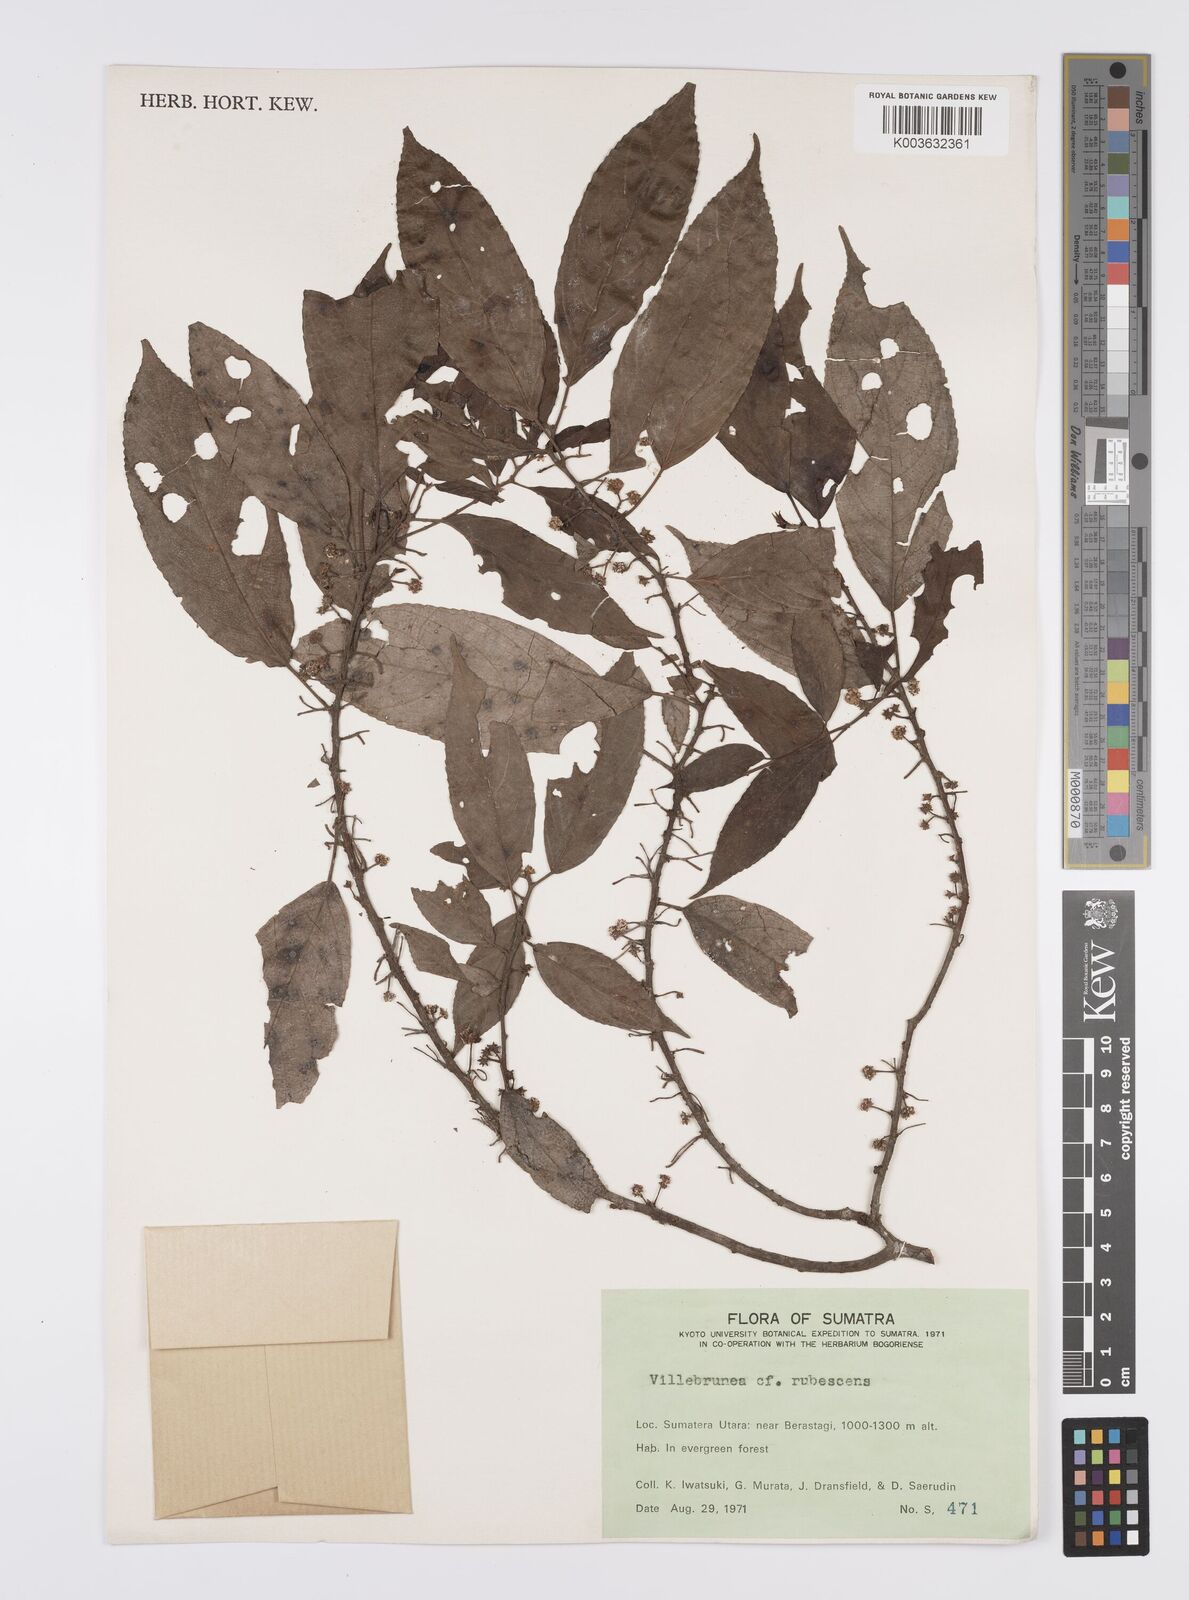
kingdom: Plantae
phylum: Tracheophyta
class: Magnoliopsida
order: Rosales
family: Urticaceae
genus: Oreocnide
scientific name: Oreocnide rubescens
